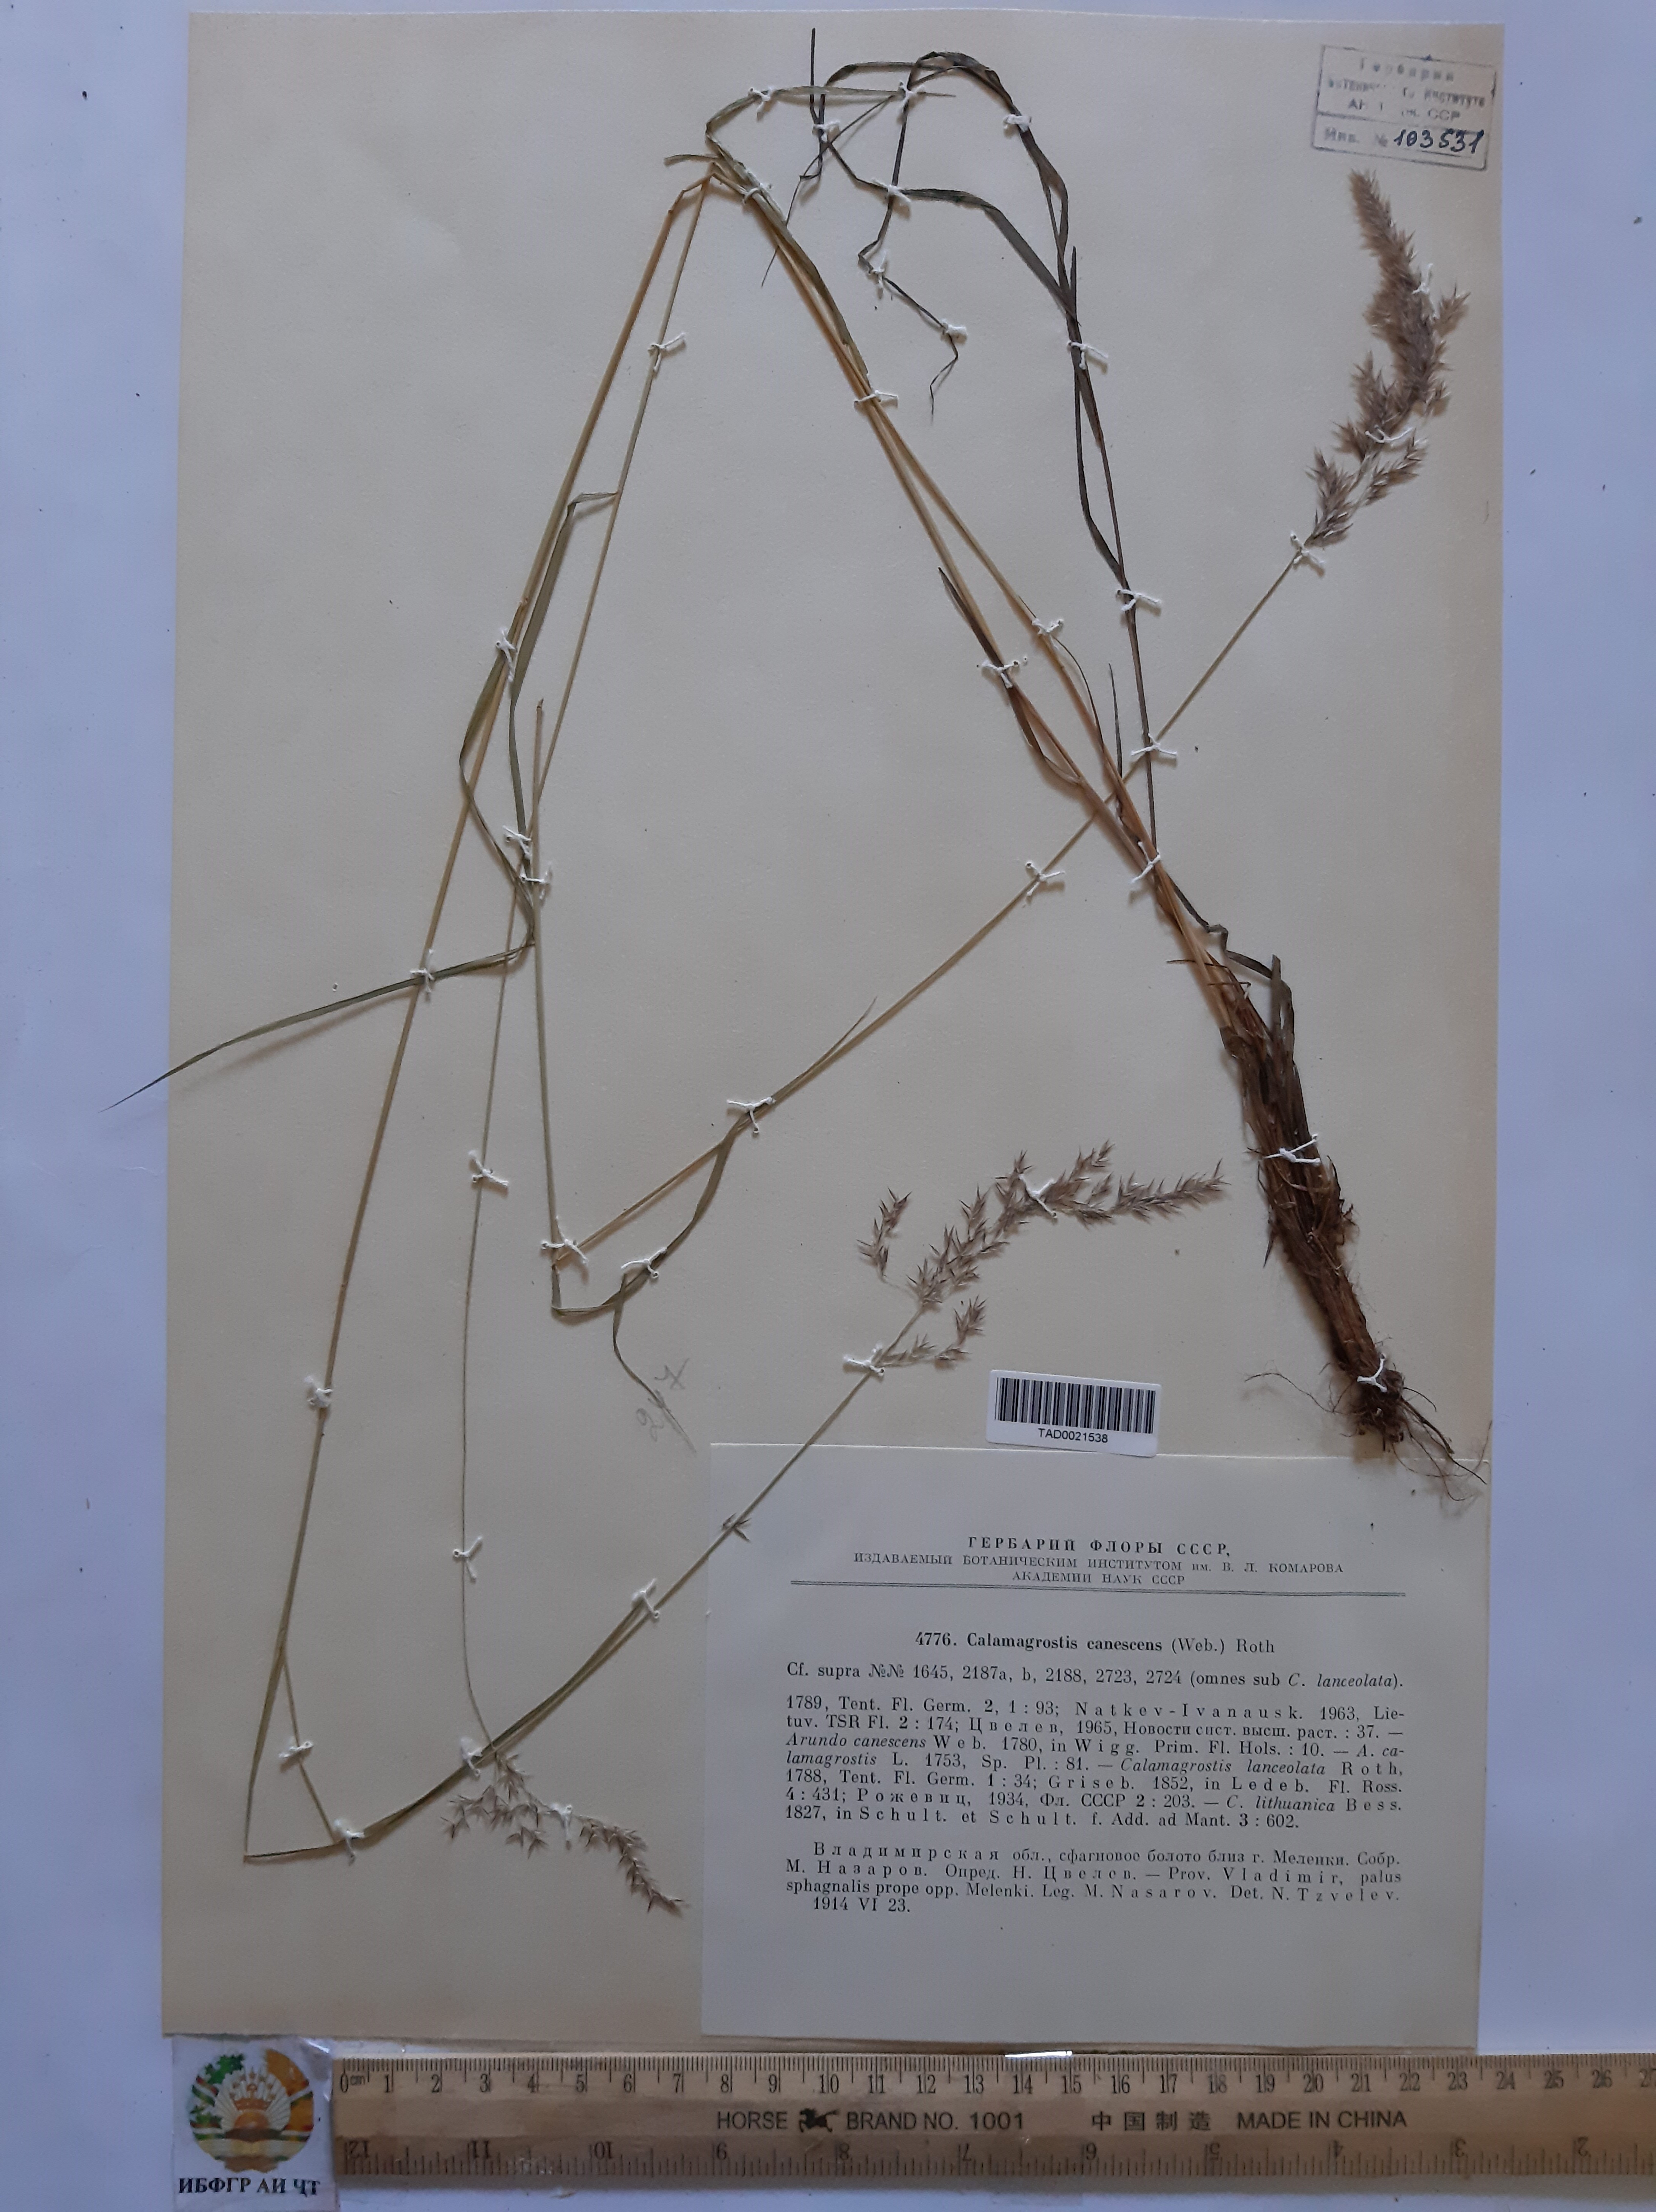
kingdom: Plantae
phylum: Tracheophyta
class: Liliopsida
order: Poales
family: Poaceae
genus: Calamagrostis
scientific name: Calamagrostis canescens
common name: Purple small-reed
